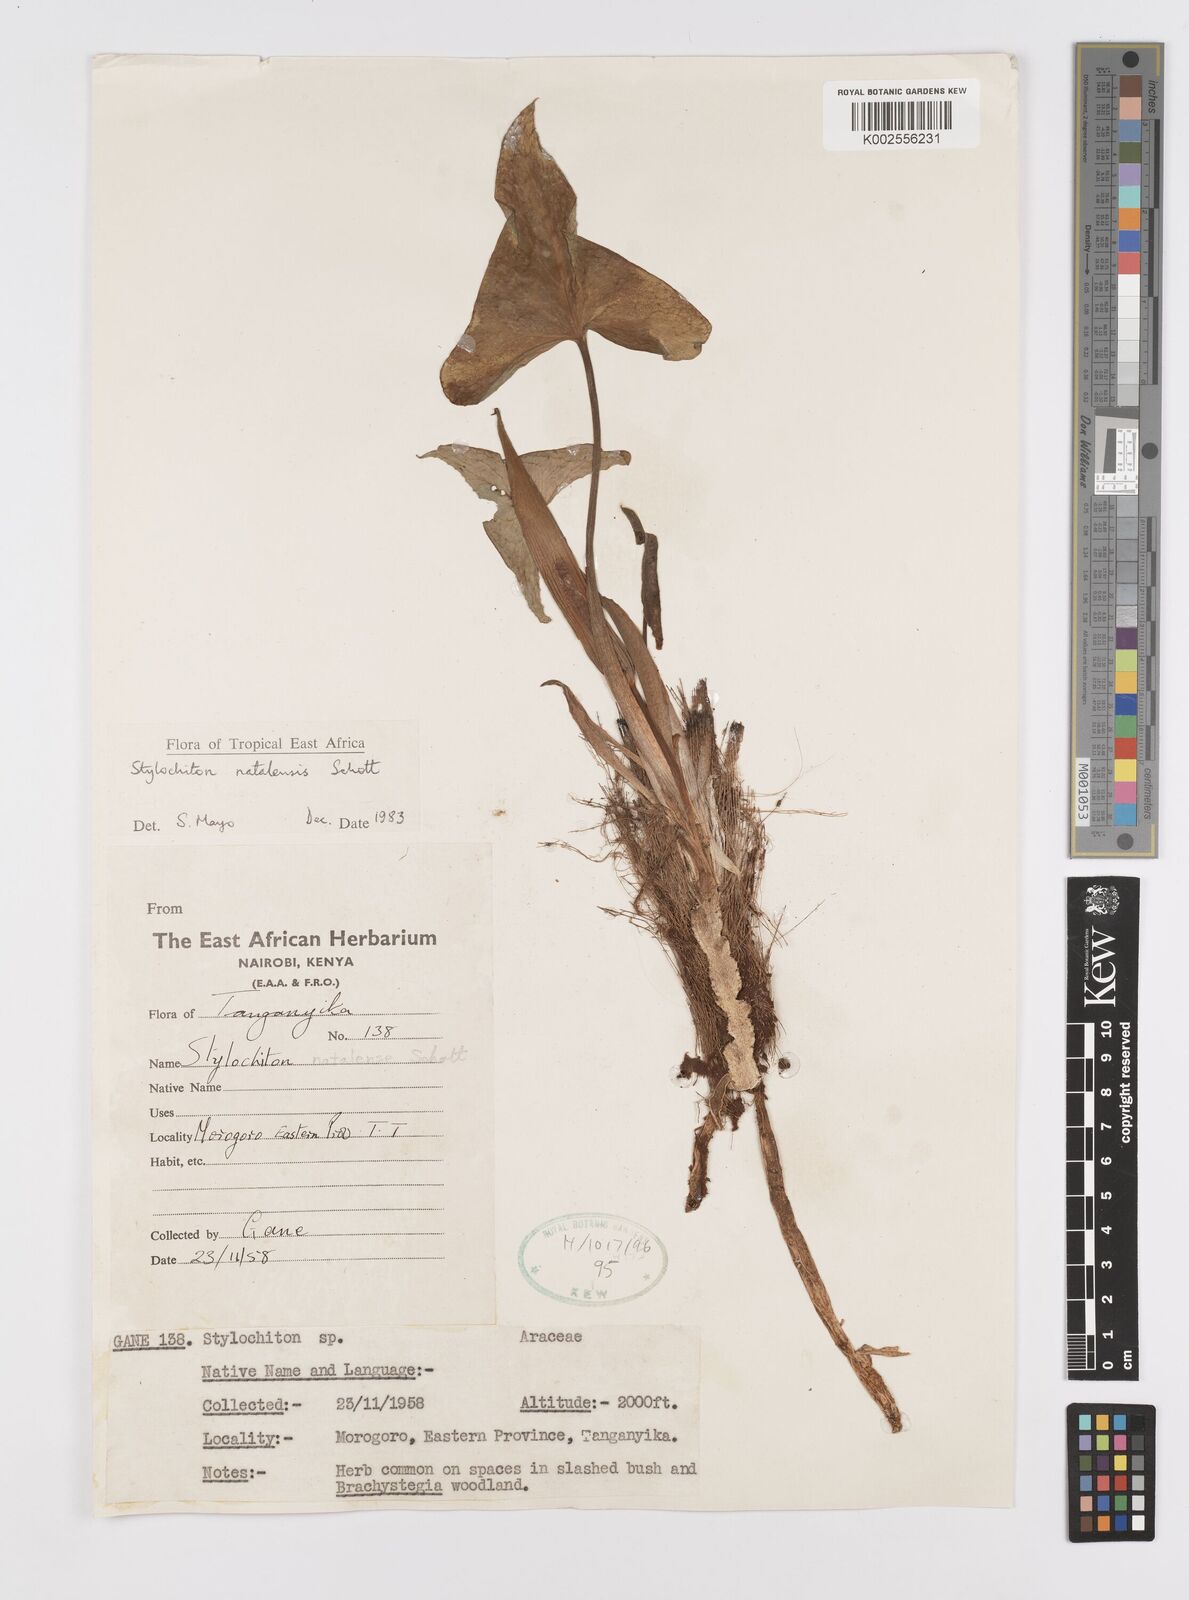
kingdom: Plantae
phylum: Tracheophyta
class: Liliopsida
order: Alismatales
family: Araceae
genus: Stylochaeton
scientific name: Stylochaeton natalense
